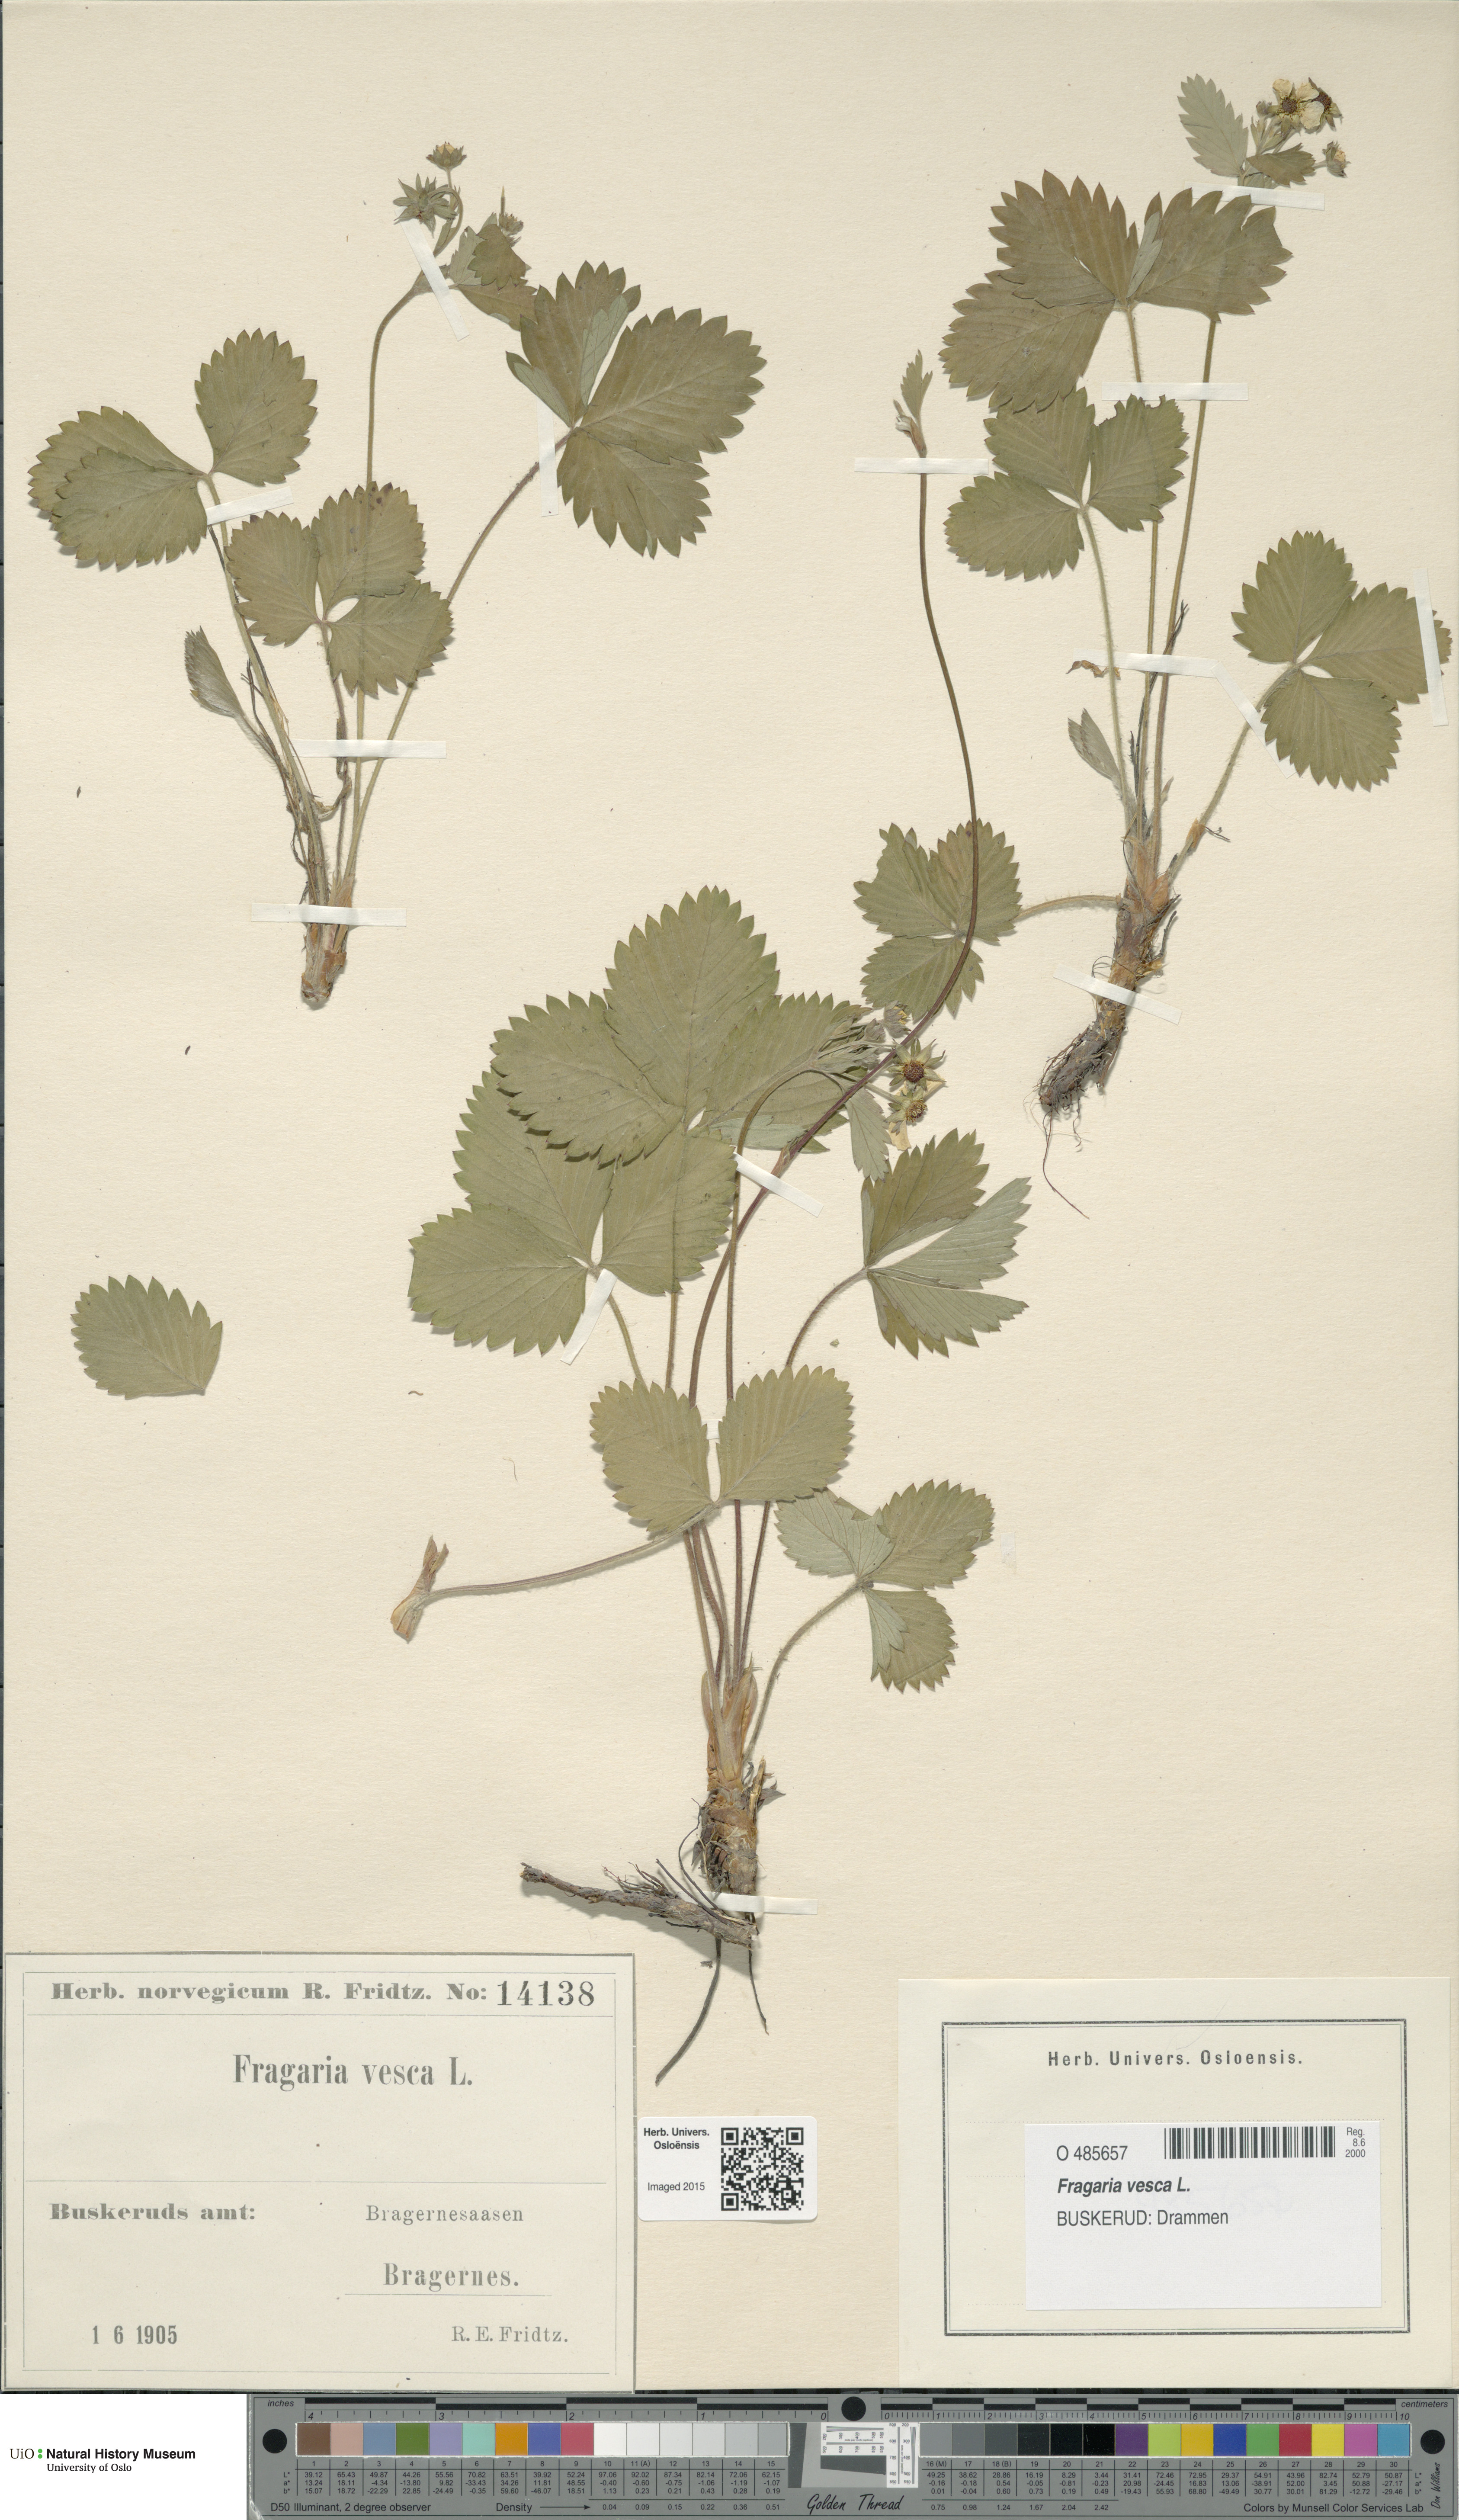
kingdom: Plantae
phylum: Tracheophyta
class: Magnoliopsida
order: Rosales
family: Rosaceae
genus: Fragaria
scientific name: Fragaria vesca
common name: Wild strawberry
